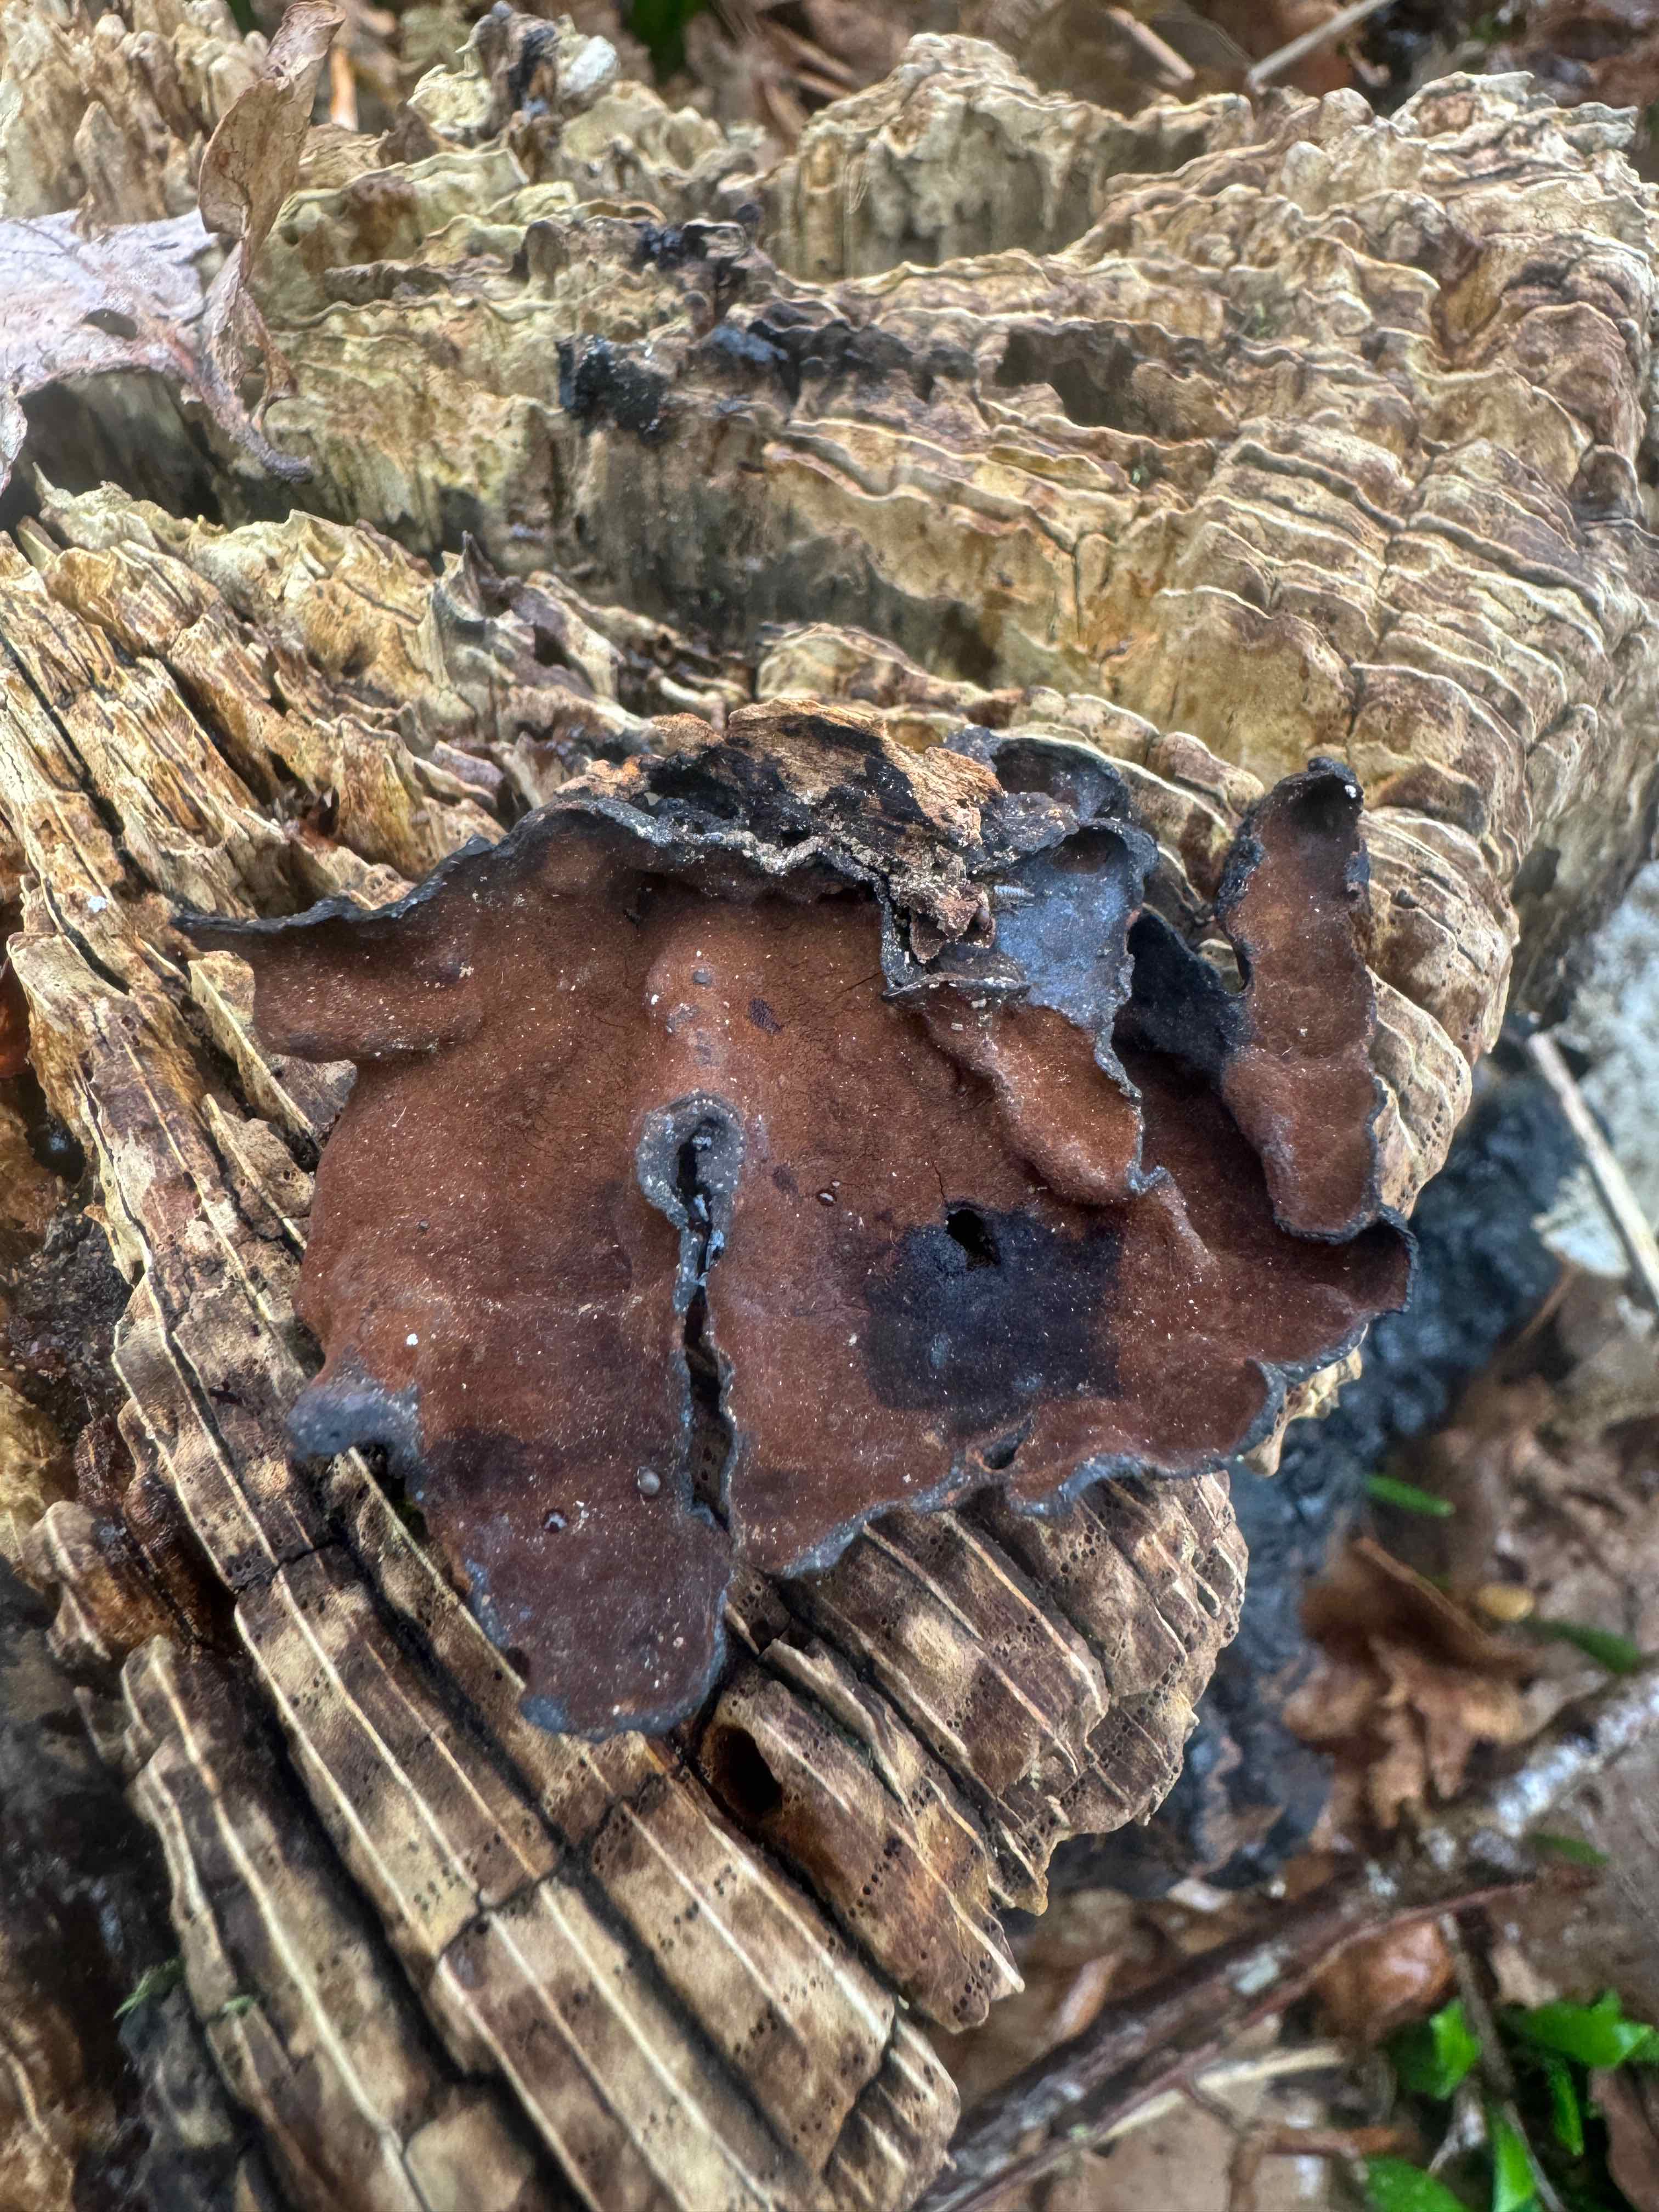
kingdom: Fungi
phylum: Basidiomycota
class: Agaricomycetes
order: Hymenochaetales
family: Hymenochaetaceae
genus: Hymenochaete
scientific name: Hymenochaete rubiginosa
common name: stiv ruslædersvamp
